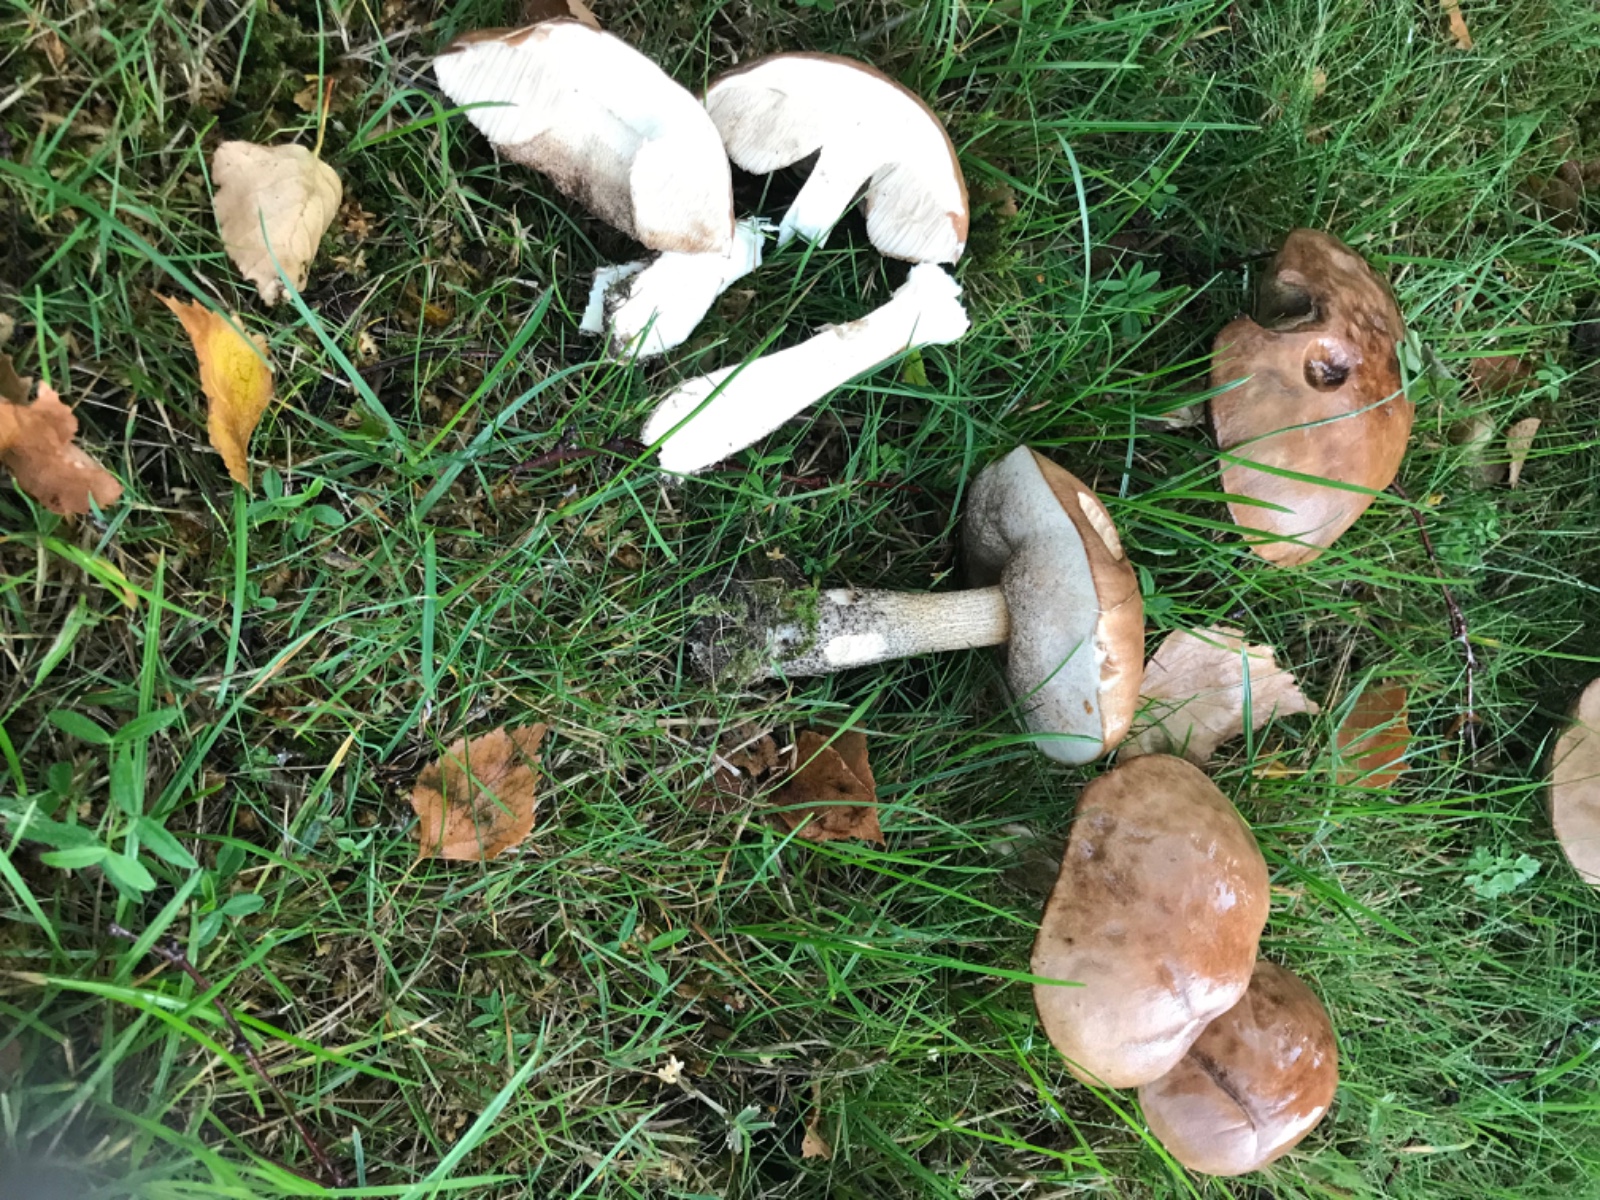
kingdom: Fungi
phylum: Basidiomycota
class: Agaricomycetes
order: Boletales
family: Boletaceae
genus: Leccinum
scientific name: Leccinum scabrum
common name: brun skælrørhat
